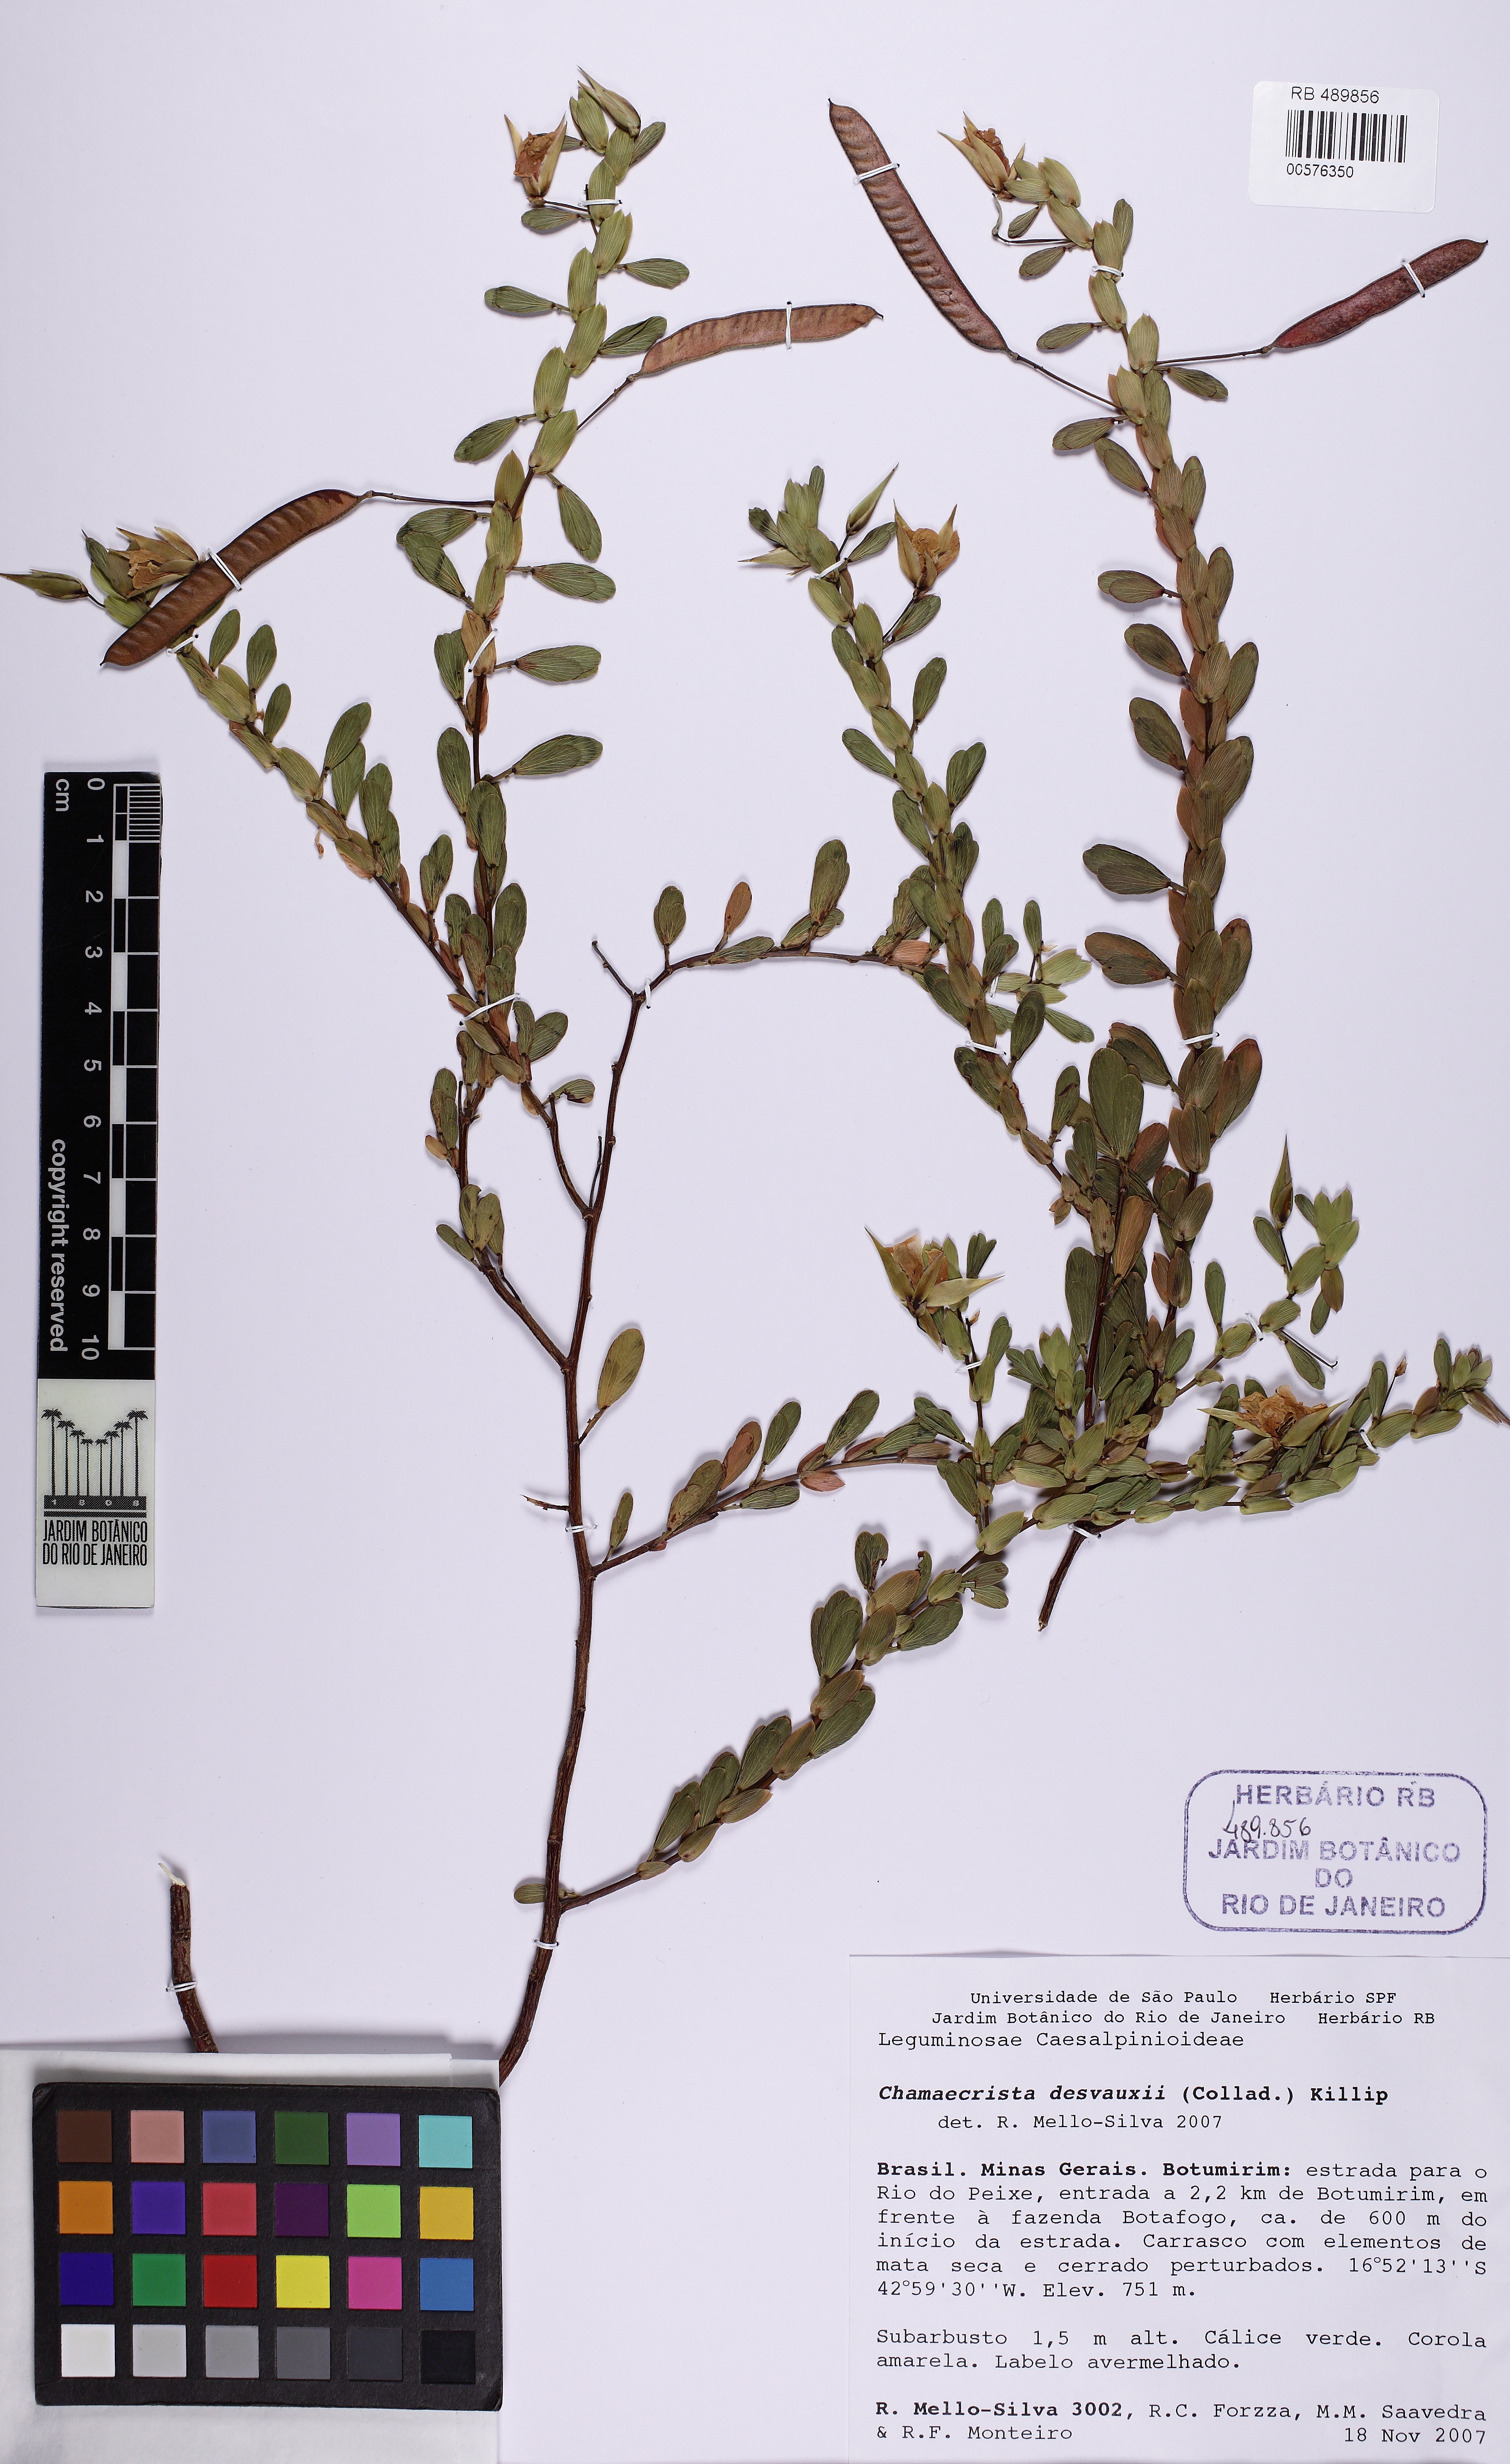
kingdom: Plantae
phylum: Tracheophyta
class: Magnoliopsida
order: Fabales
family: Fabaceae
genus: Chamaecrista
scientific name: Chamaecrista desvauxii
